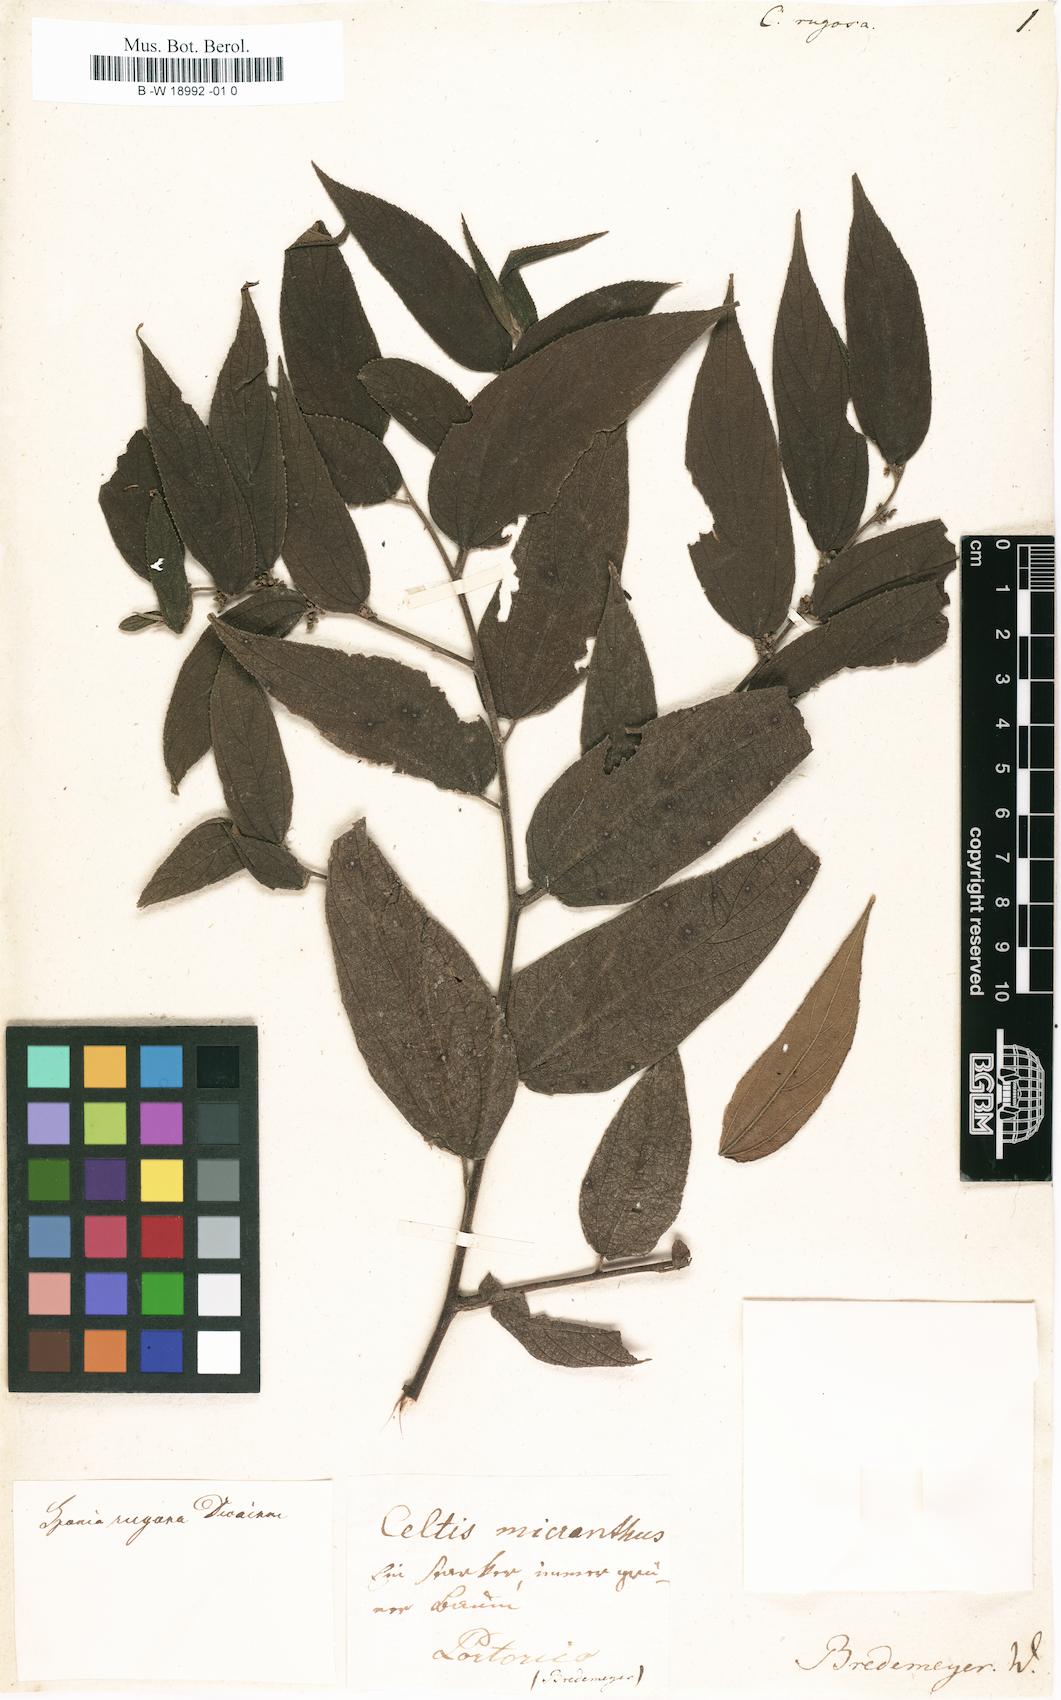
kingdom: Plantae
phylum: Tracheophyta
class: Magnoliopsida
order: Rosales
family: Cannabaceae
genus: Trema
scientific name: Trema micranthum
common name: Jamaican nettletree
